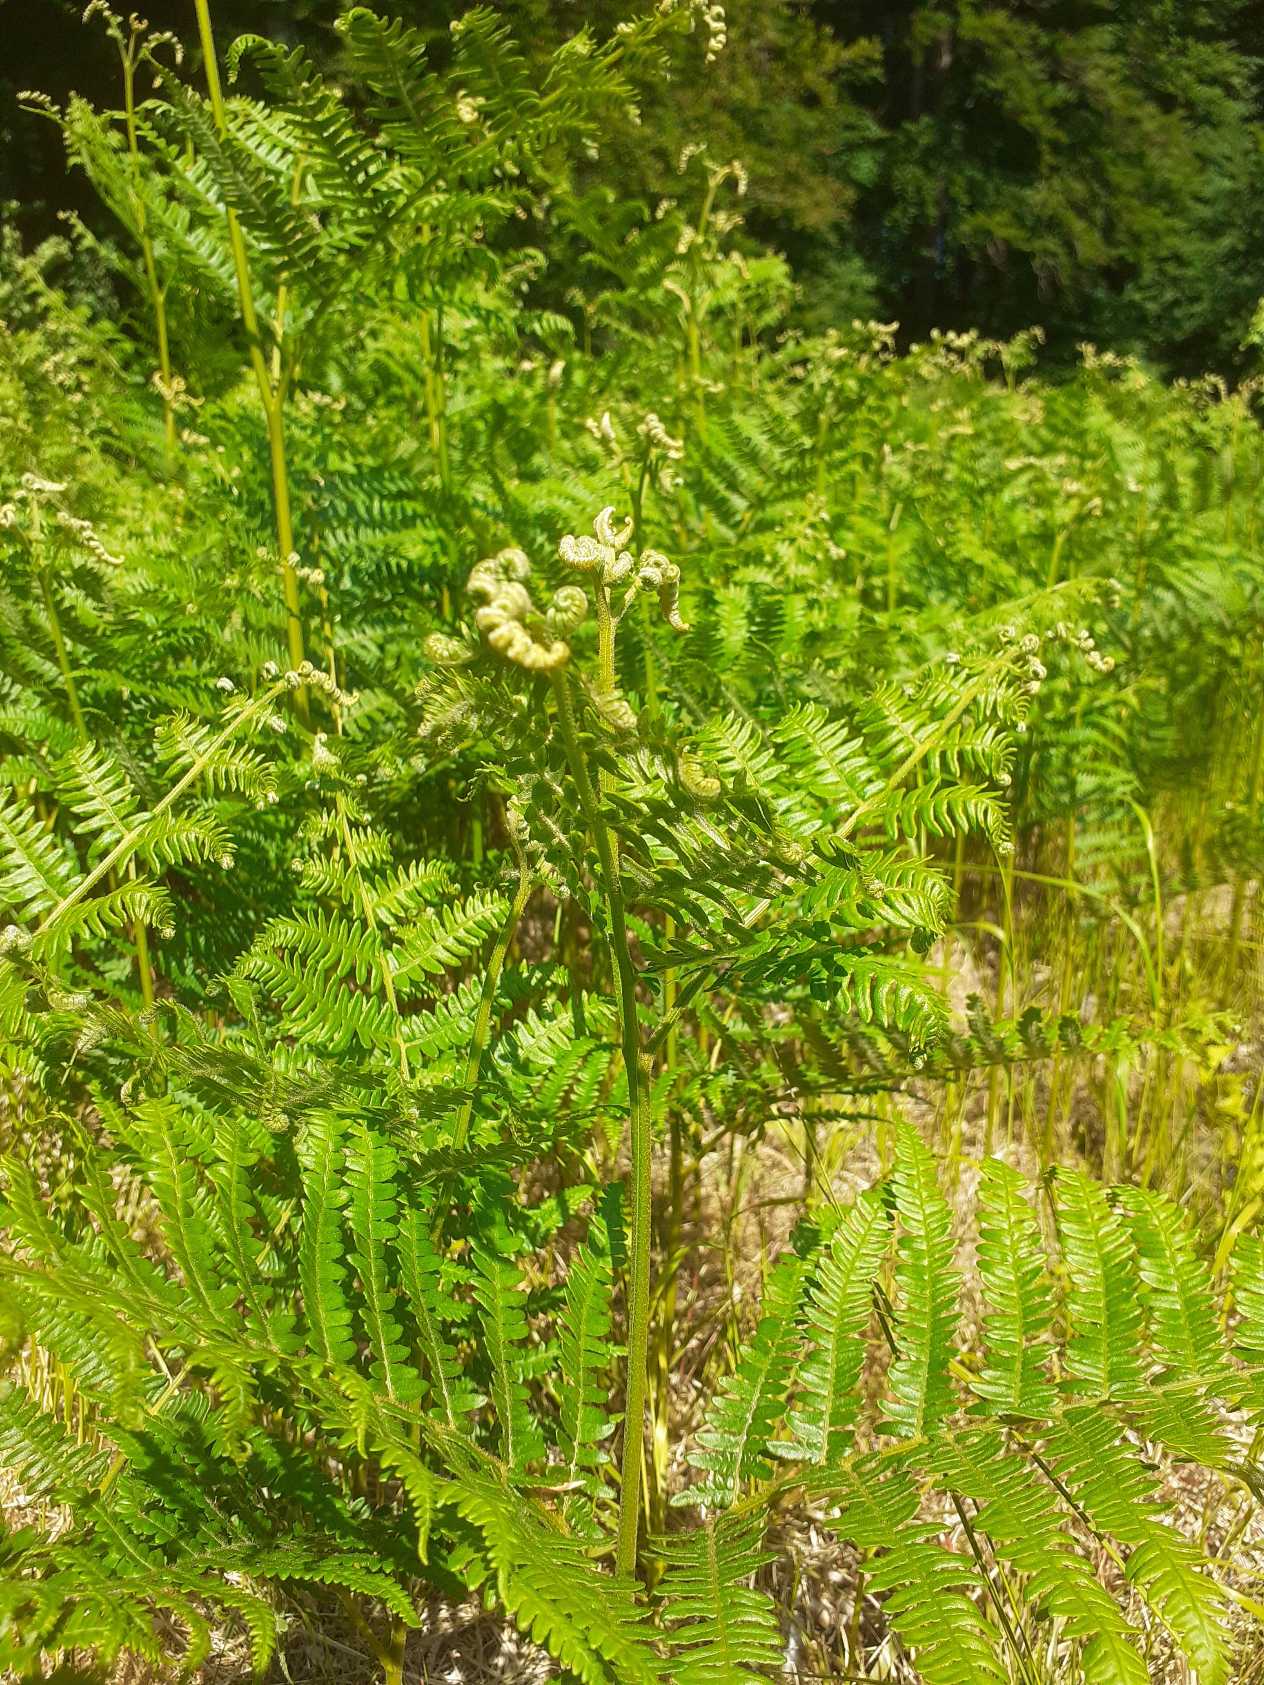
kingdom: Plantae
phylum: Tracheophyta
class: Polypodiopsida
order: Polypodiales
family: Dennstaedtiaceae
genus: Pteridium
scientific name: Pteridium aquilinum
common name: Ørnebregne
